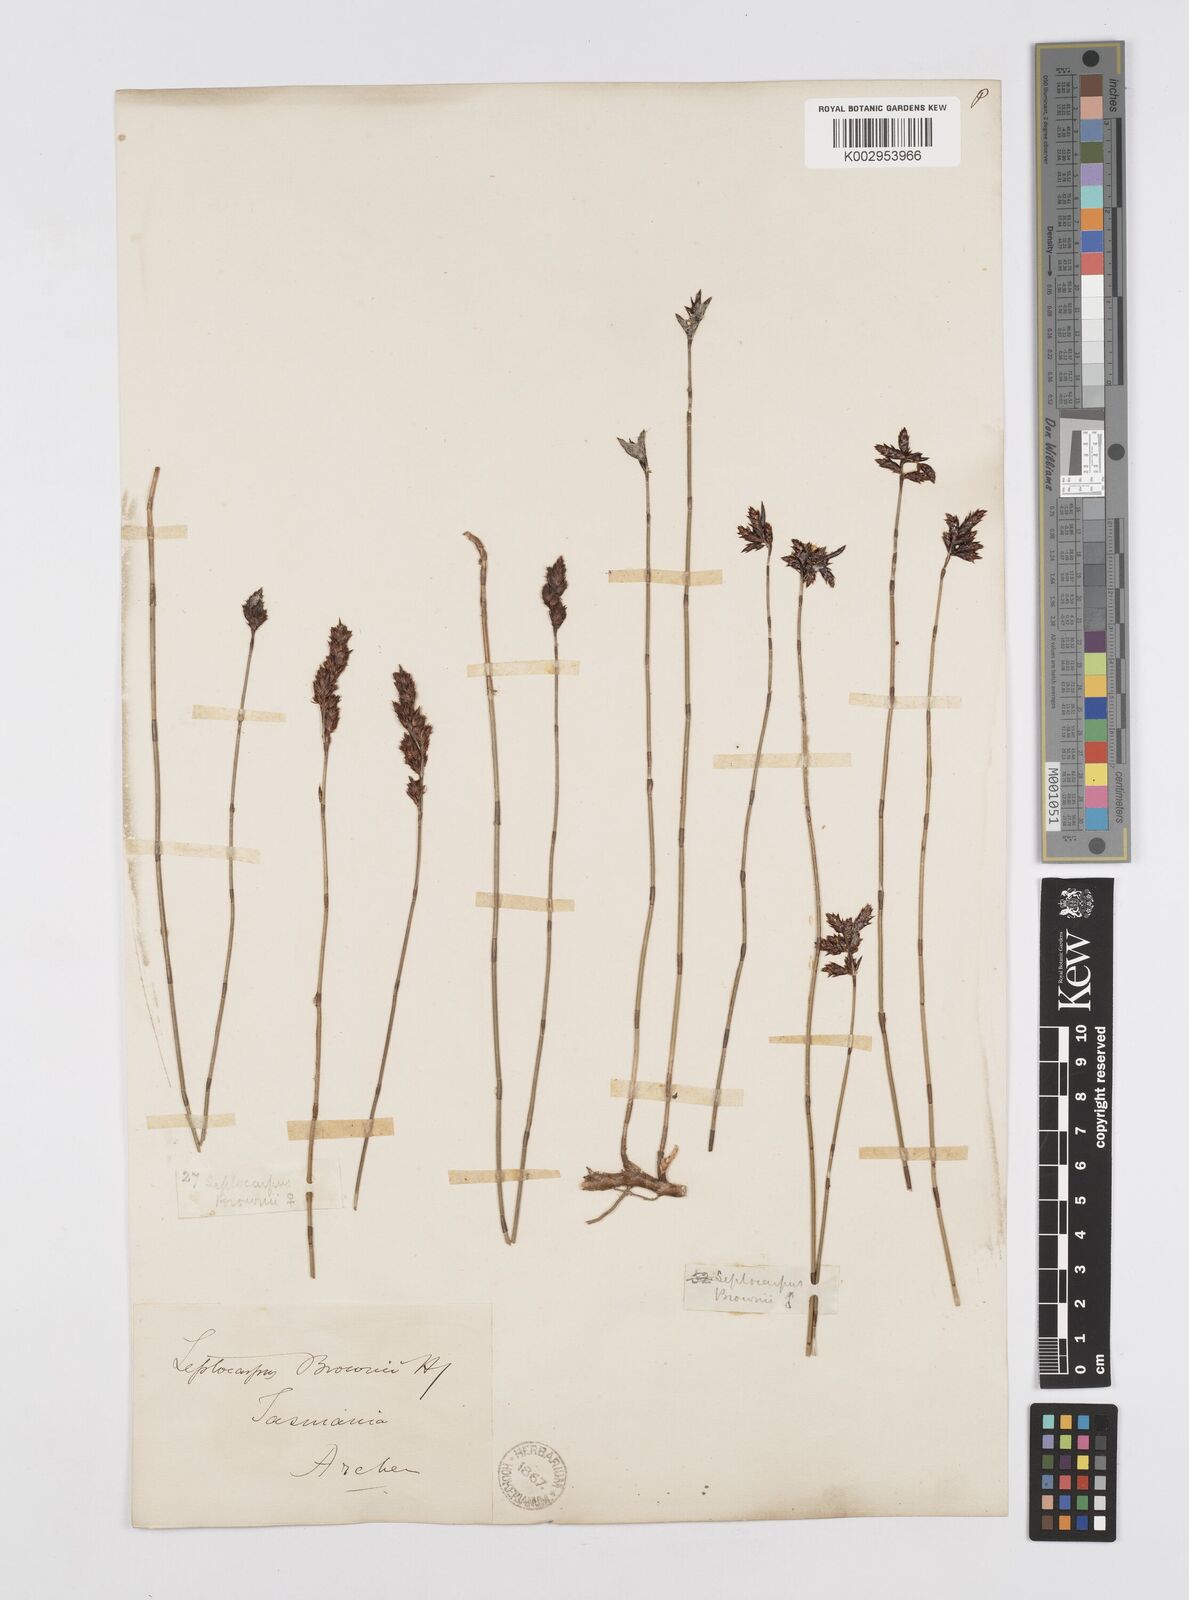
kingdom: Plantae
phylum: Tracheophyta
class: Liliopsida
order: Poales
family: Restionaceae
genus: Apodasmia
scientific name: Apodasmia brownii
